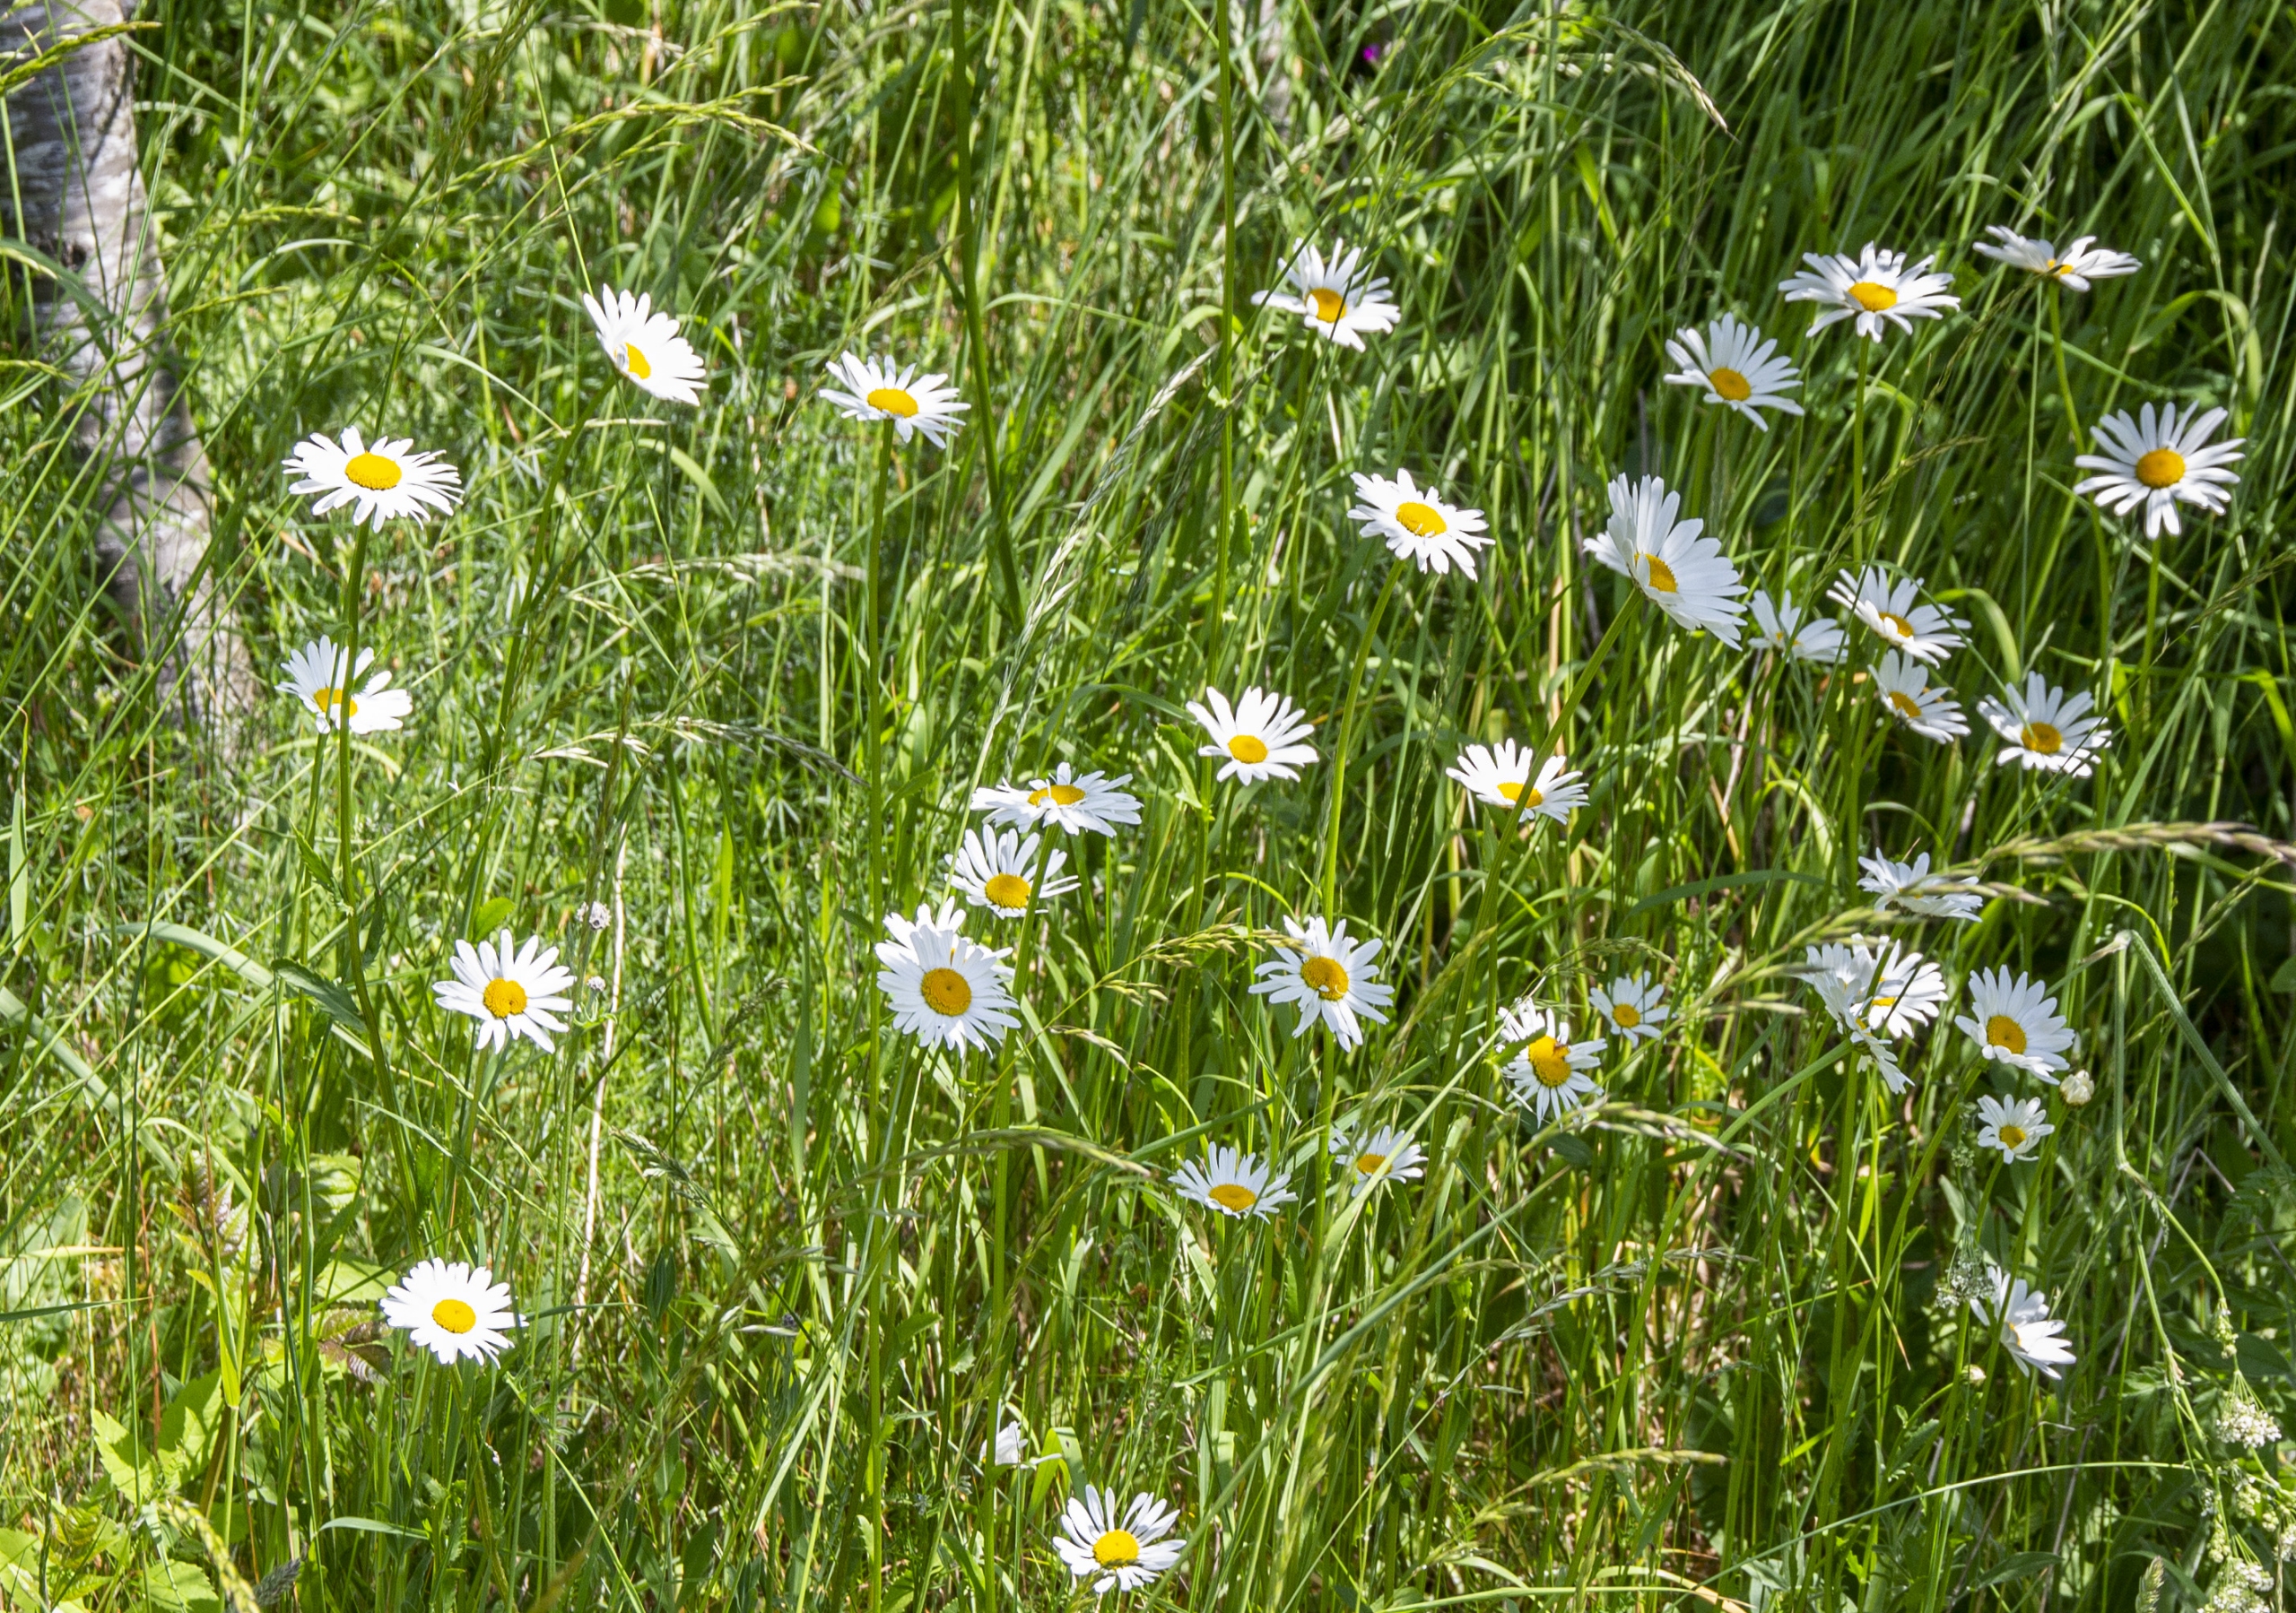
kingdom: Plantae
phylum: Tracheophyta
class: Magnoliopsida
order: Asterales
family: Asteraceae
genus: Leucanthemum
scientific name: Leucanthemum vulgare
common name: Hvid okseøje
